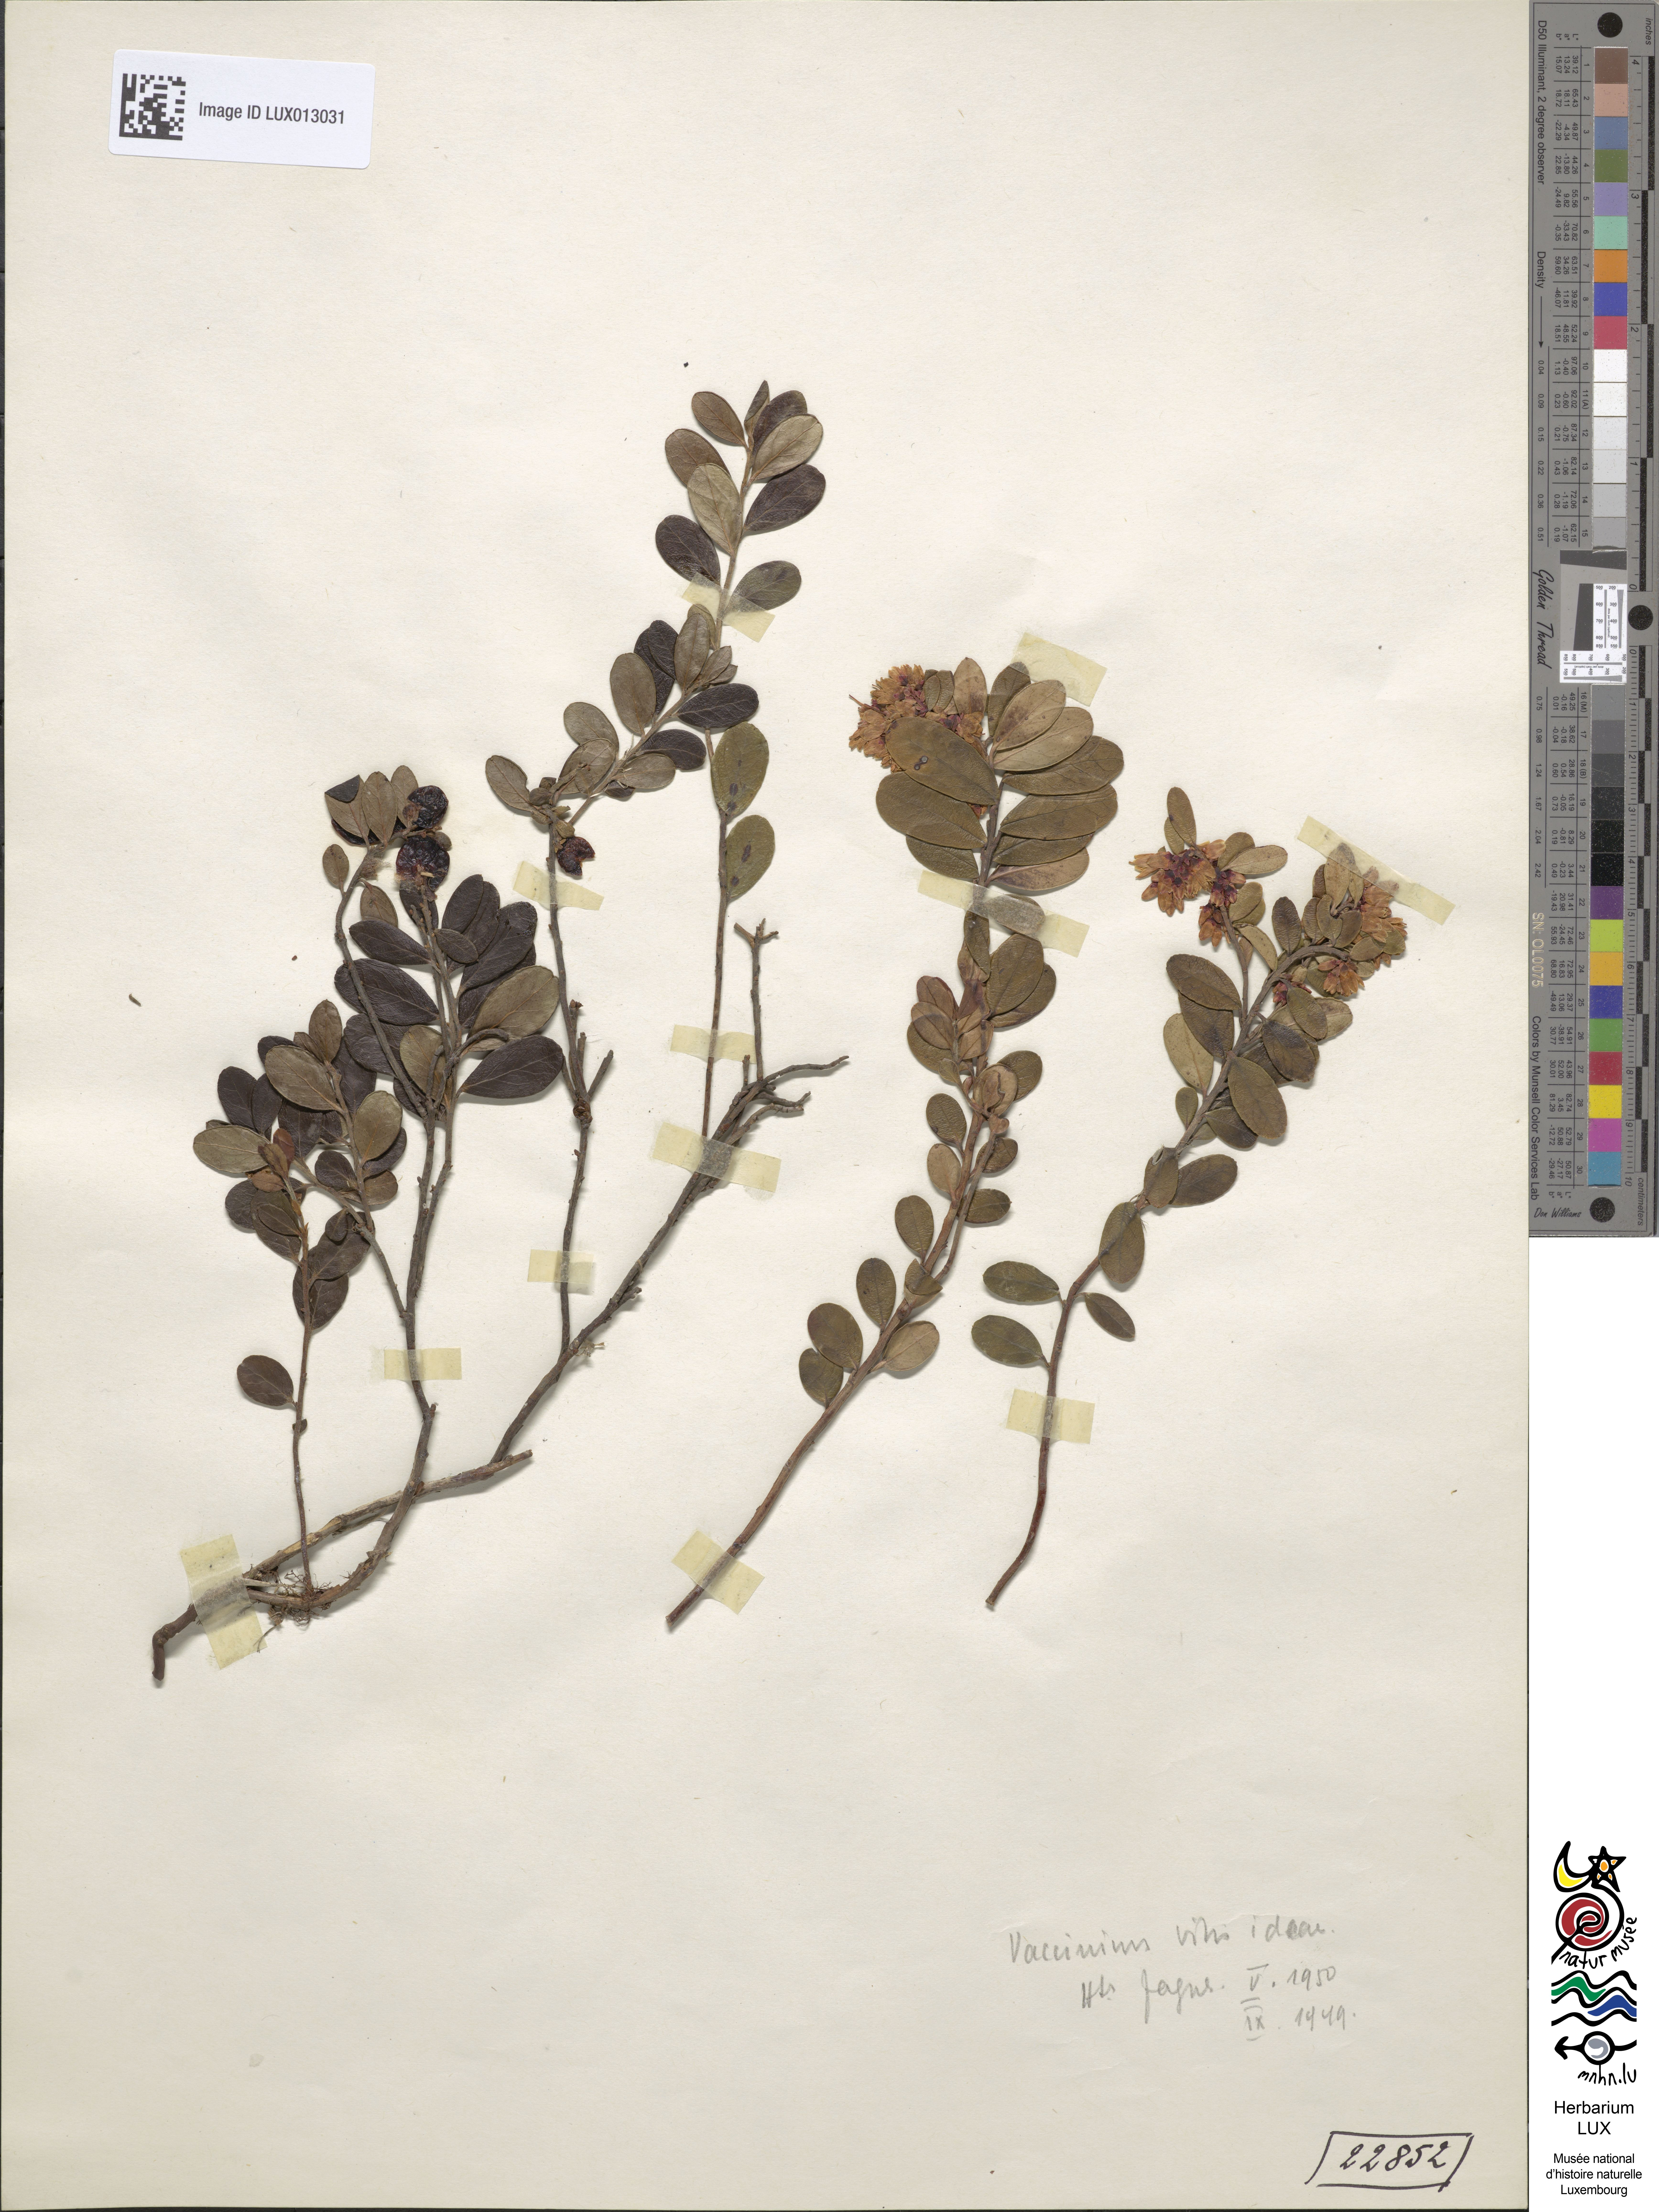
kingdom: Plantae
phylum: Tracheophyta
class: Magnoliopsida
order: Ericales
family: Ericaceae
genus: Vaccinium
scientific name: Vaccinium vitis-idaea
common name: Cowberry
